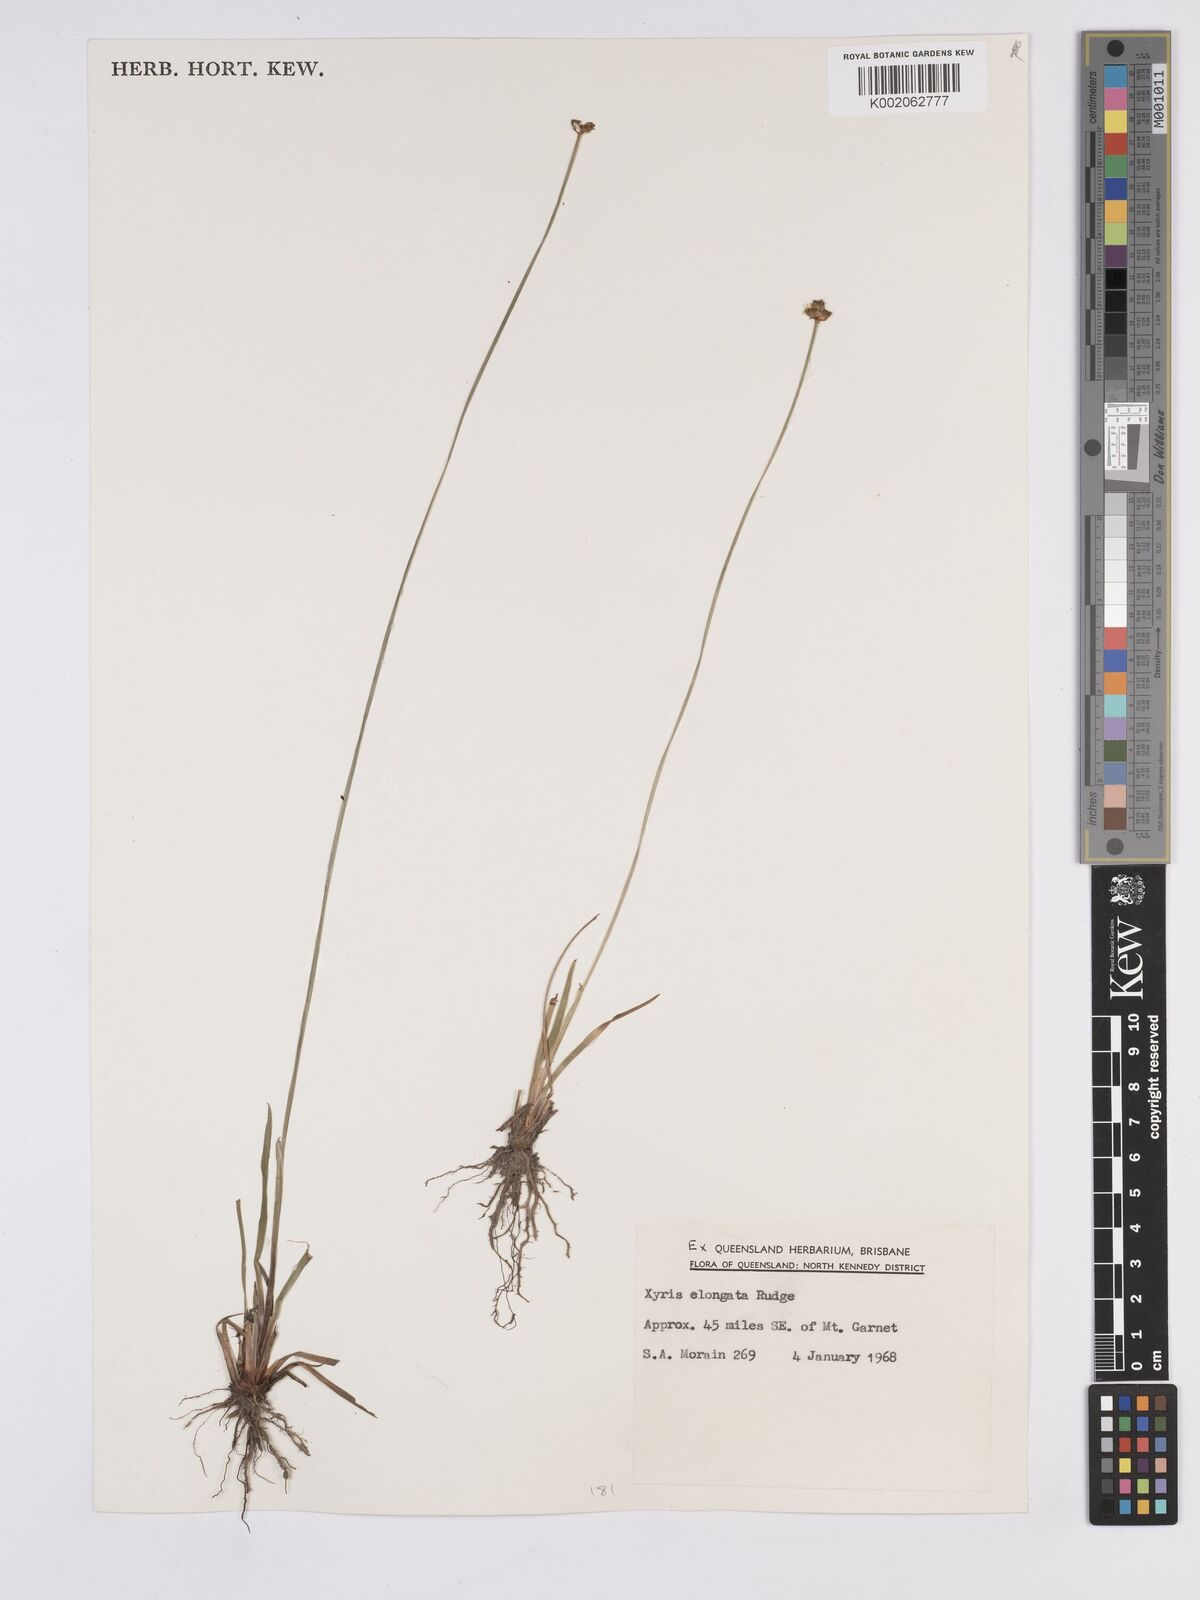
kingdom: Plantae
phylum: Tracheophyta
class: Liliopsida
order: Poales
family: Xyridaceae
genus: Xyris
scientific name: Xyris complanata
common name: Hawai'i yelloweyed grass
